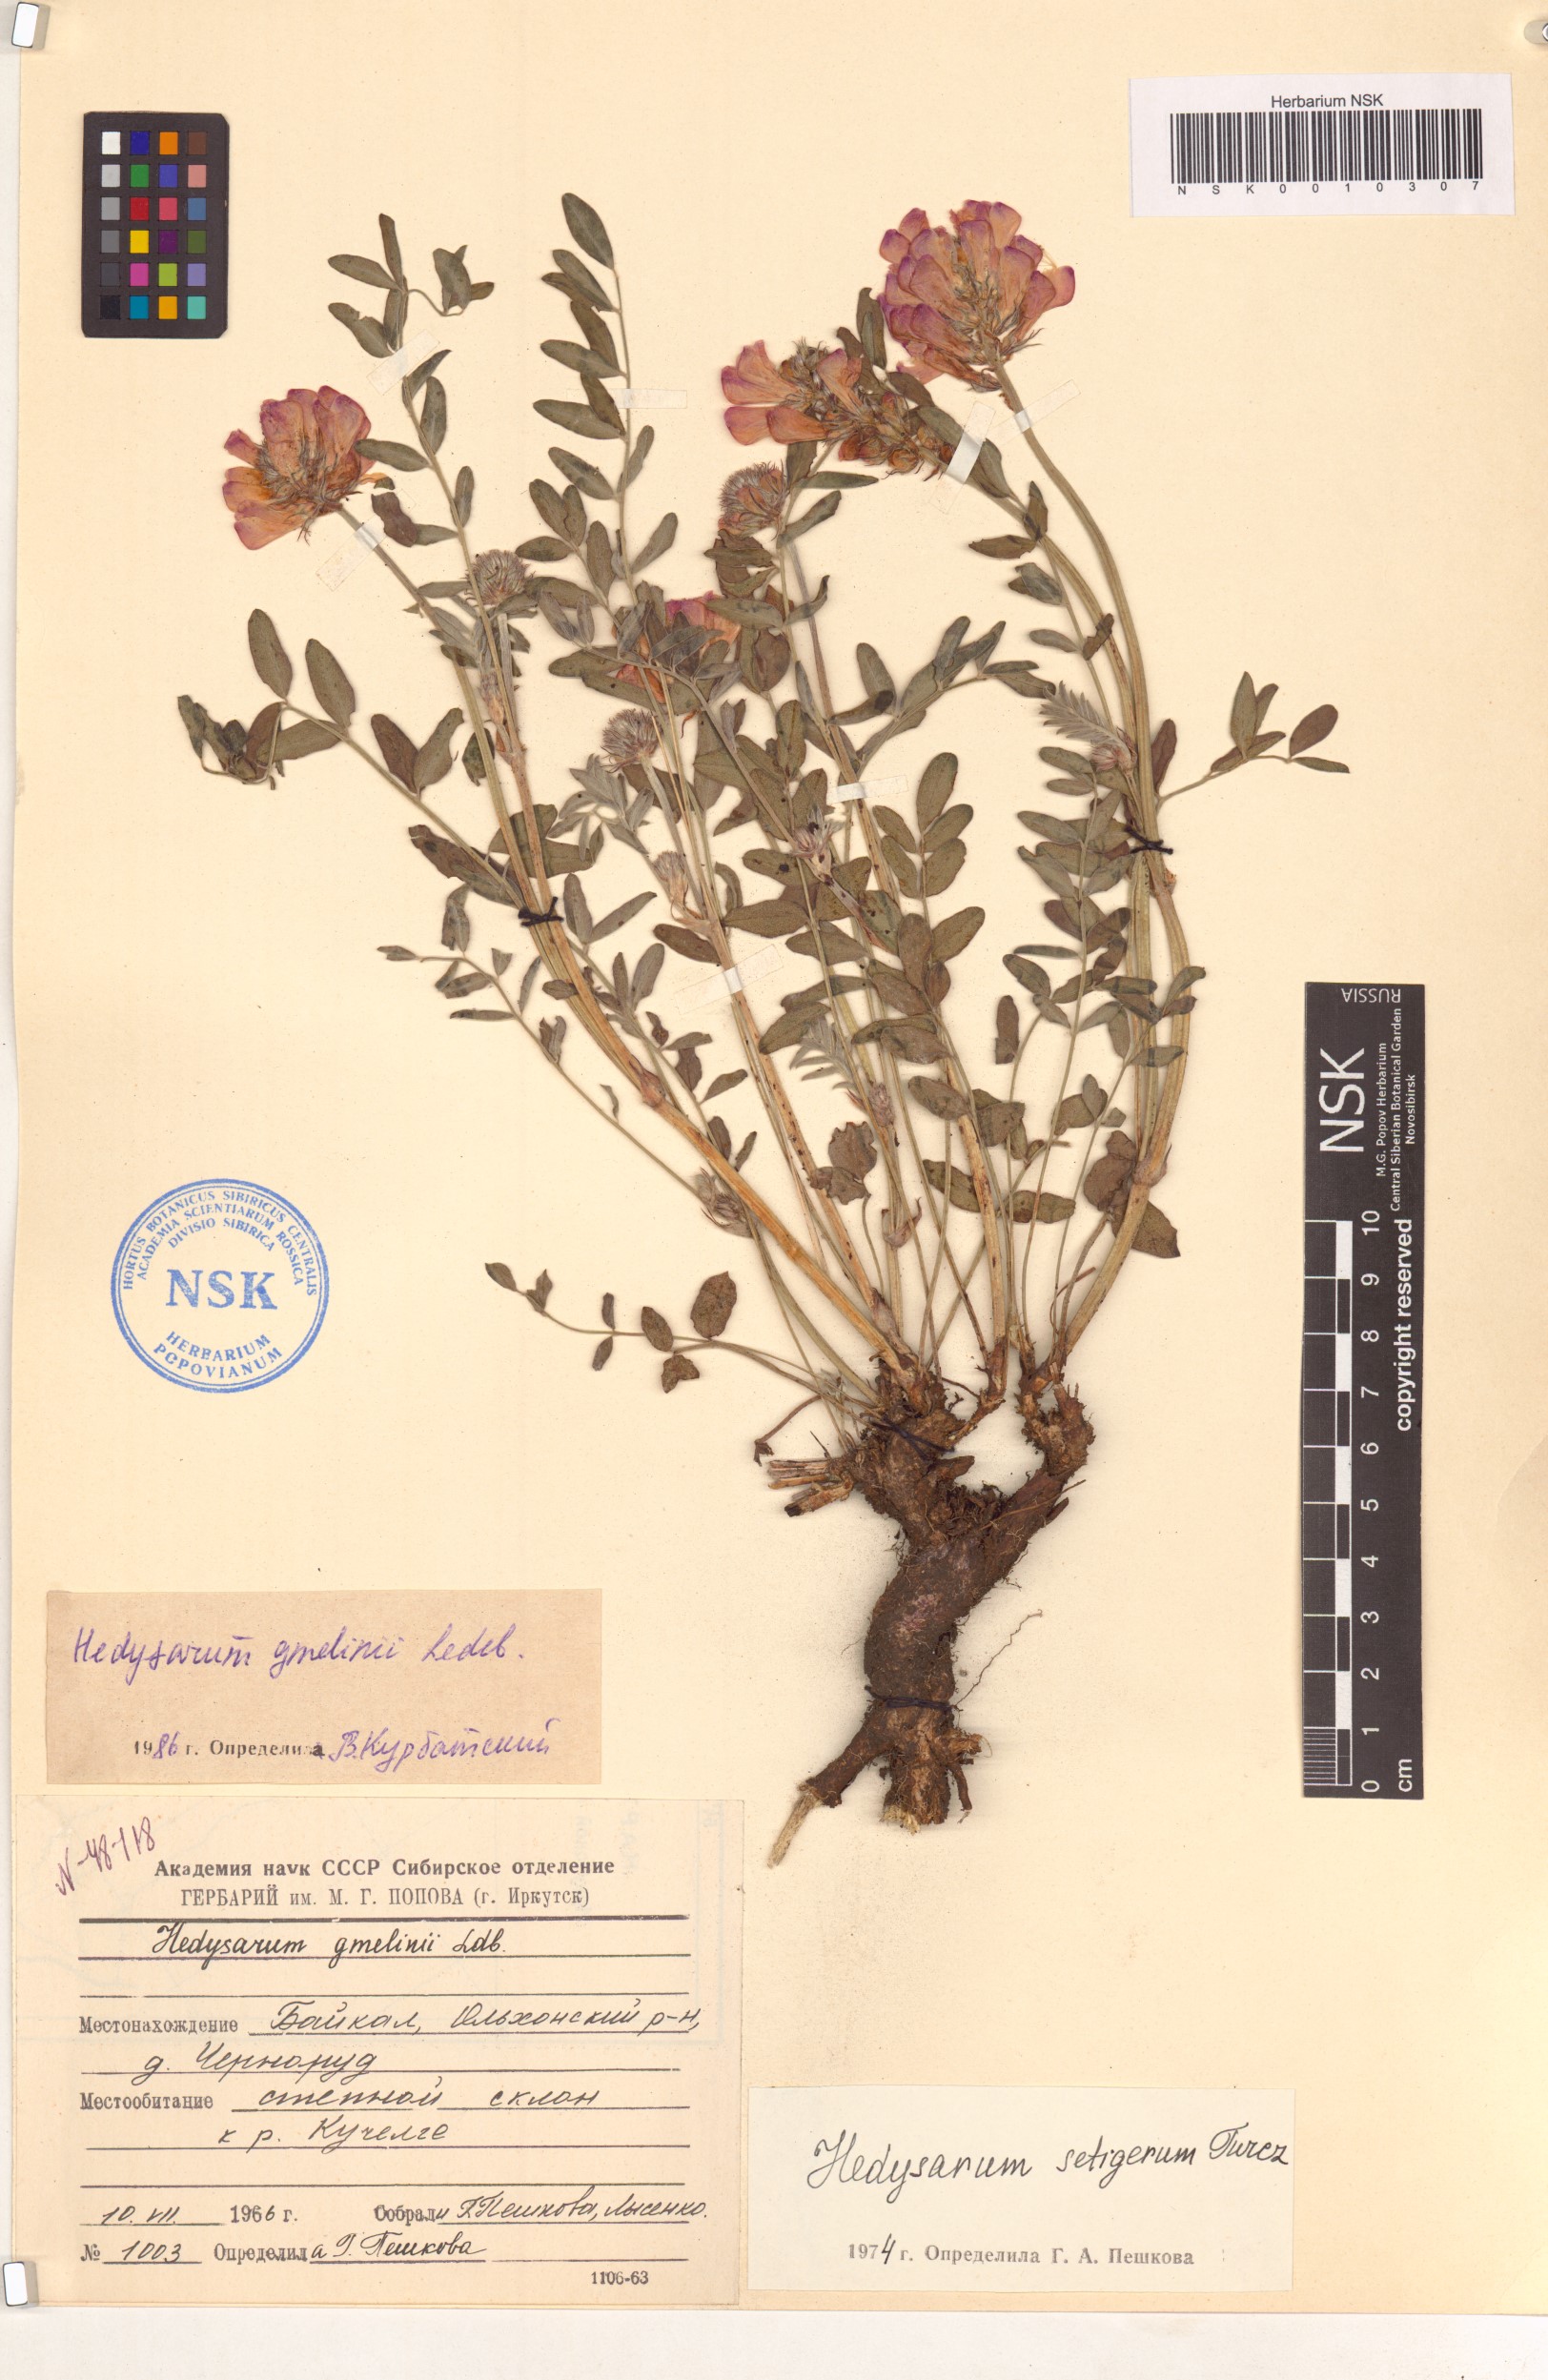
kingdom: Plantae
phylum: Tracheophyta
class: Magnoliopsida
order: Fabales
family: Fabaceae
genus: Hedysarum
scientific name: Hedysarum gmelinii
